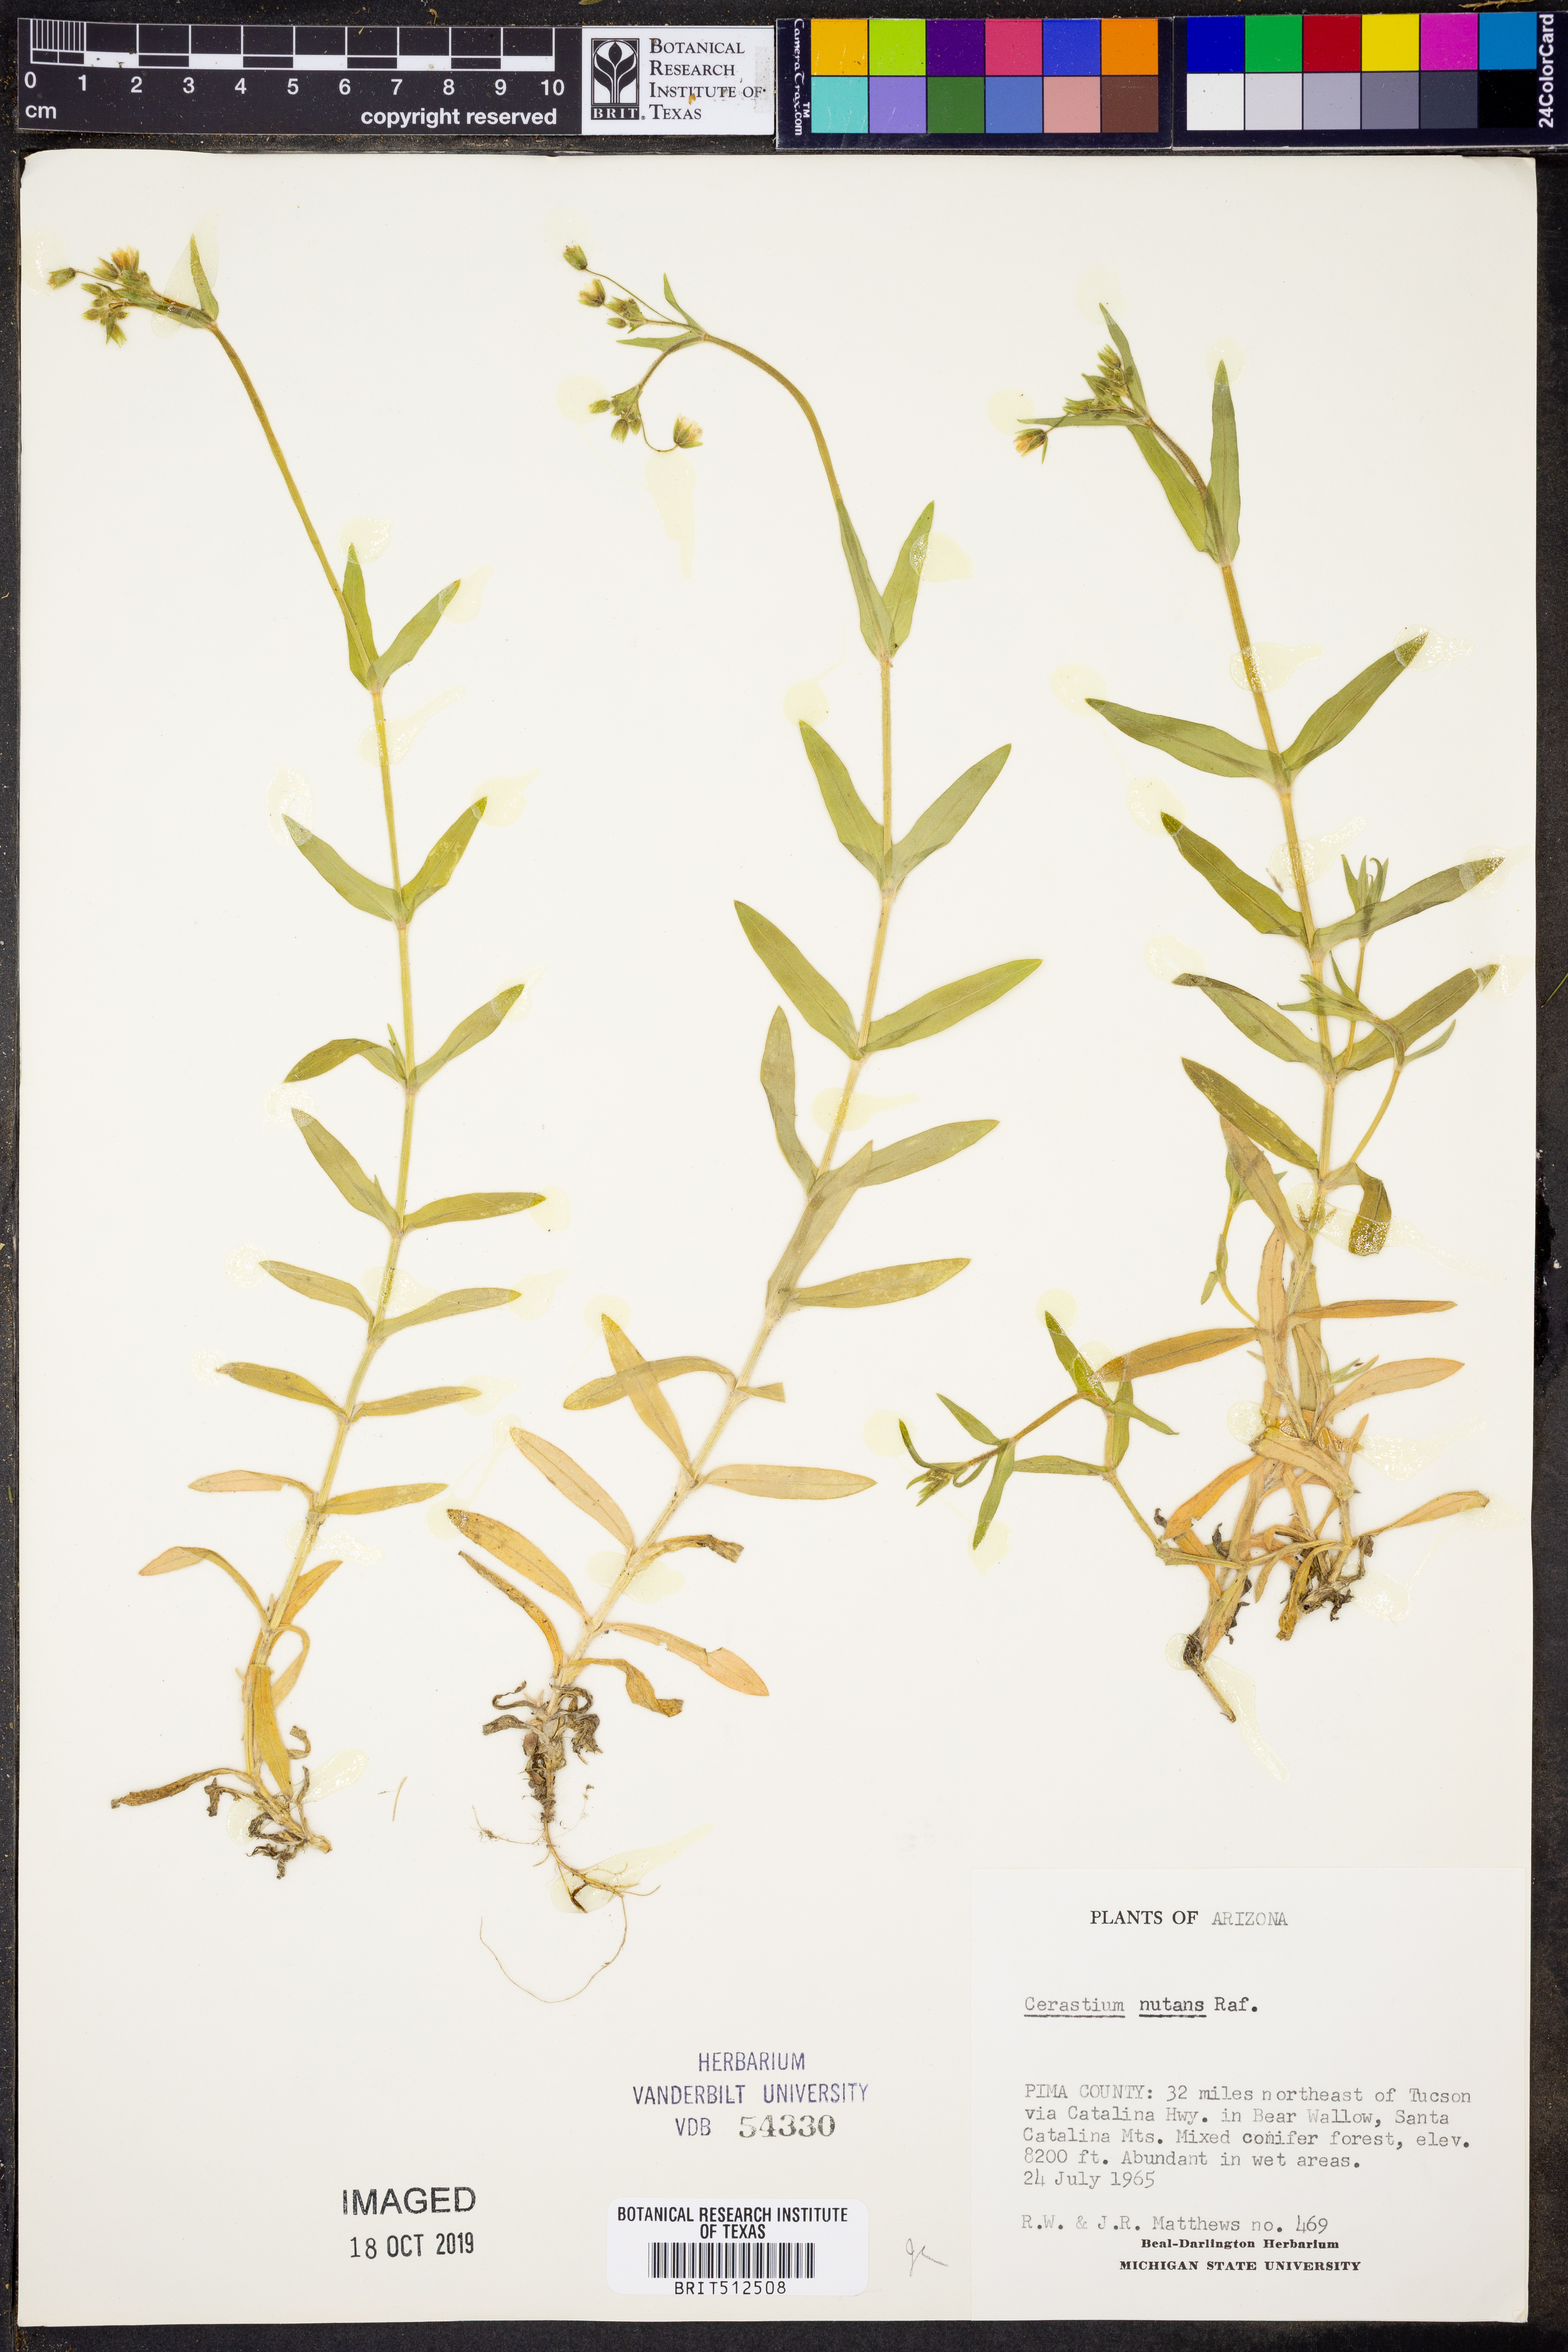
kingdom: Plantae
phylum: Tracheophyta
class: Magnoliopsida
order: Caryophyllales
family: Caryophyllaceae
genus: Cerastium
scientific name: Cerastium nutans
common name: Long-stalked chickweed
